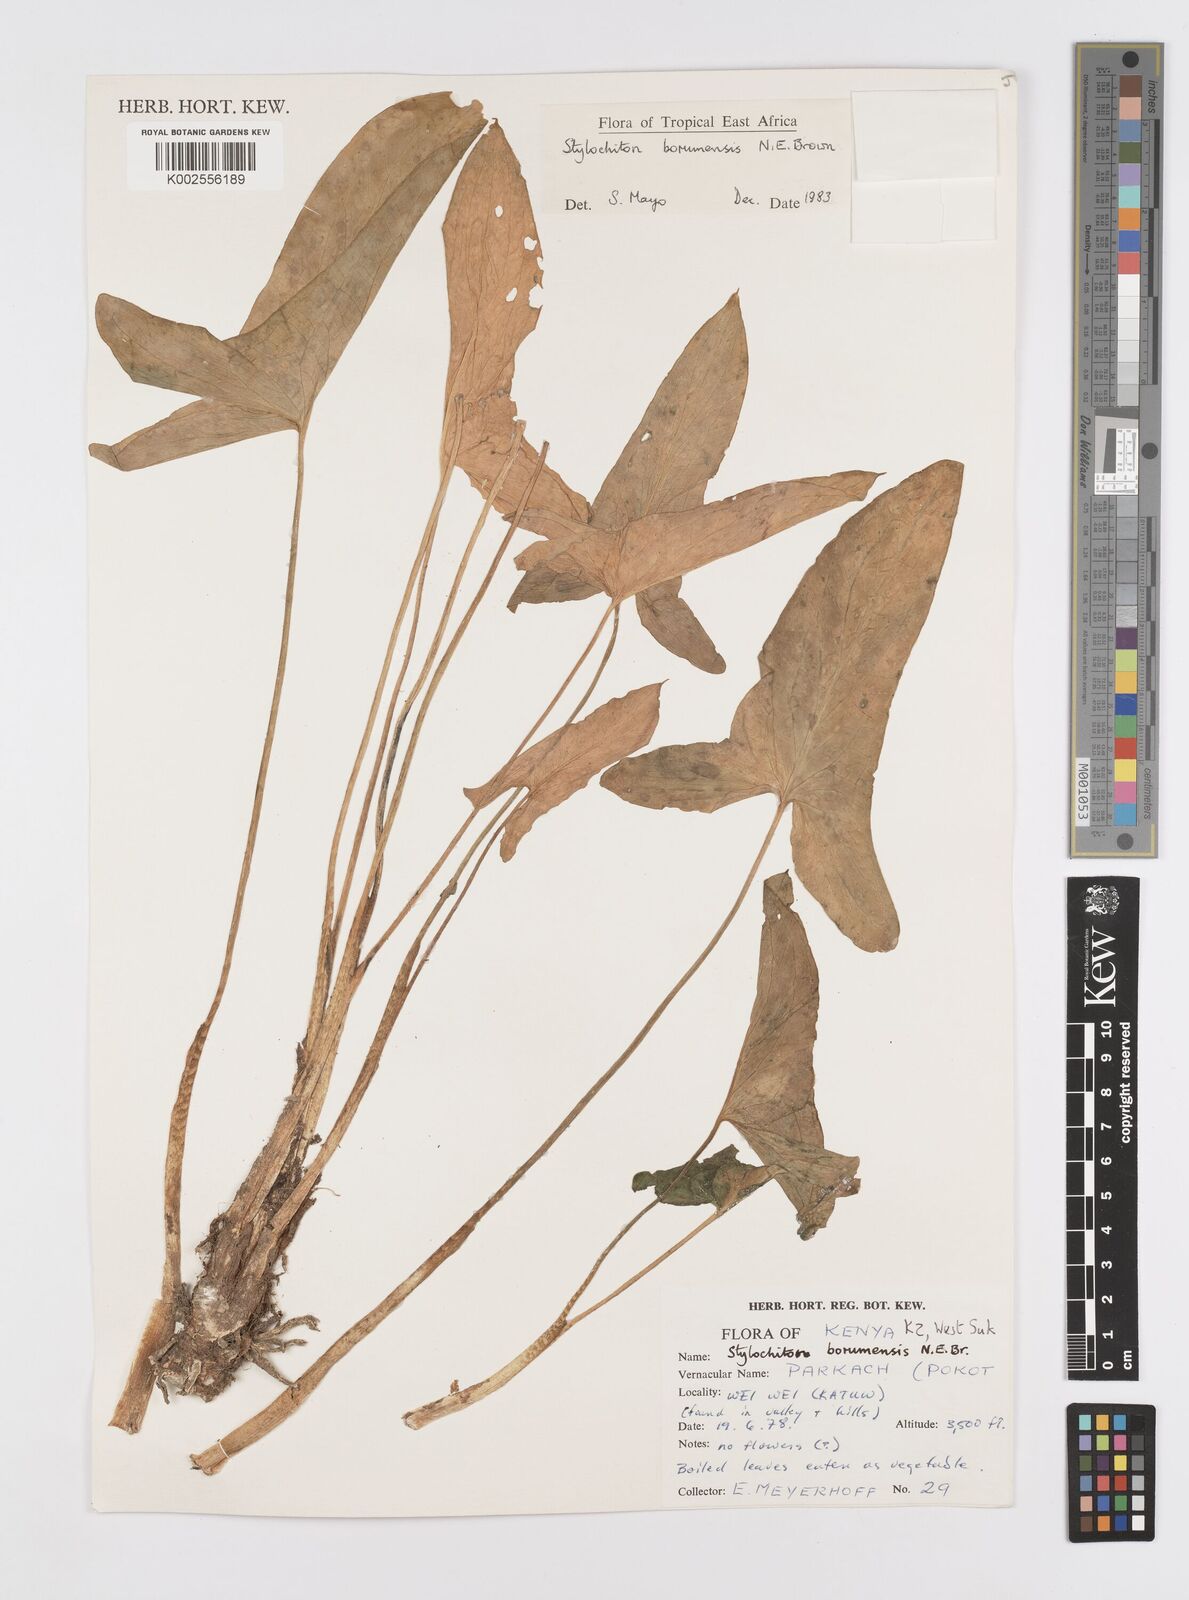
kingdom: Plantae
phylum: Tracheophyta
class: Liliopsida
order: Alismatales
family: Araceae
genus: Stylochaeton
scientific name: Stylochaeton borumense
